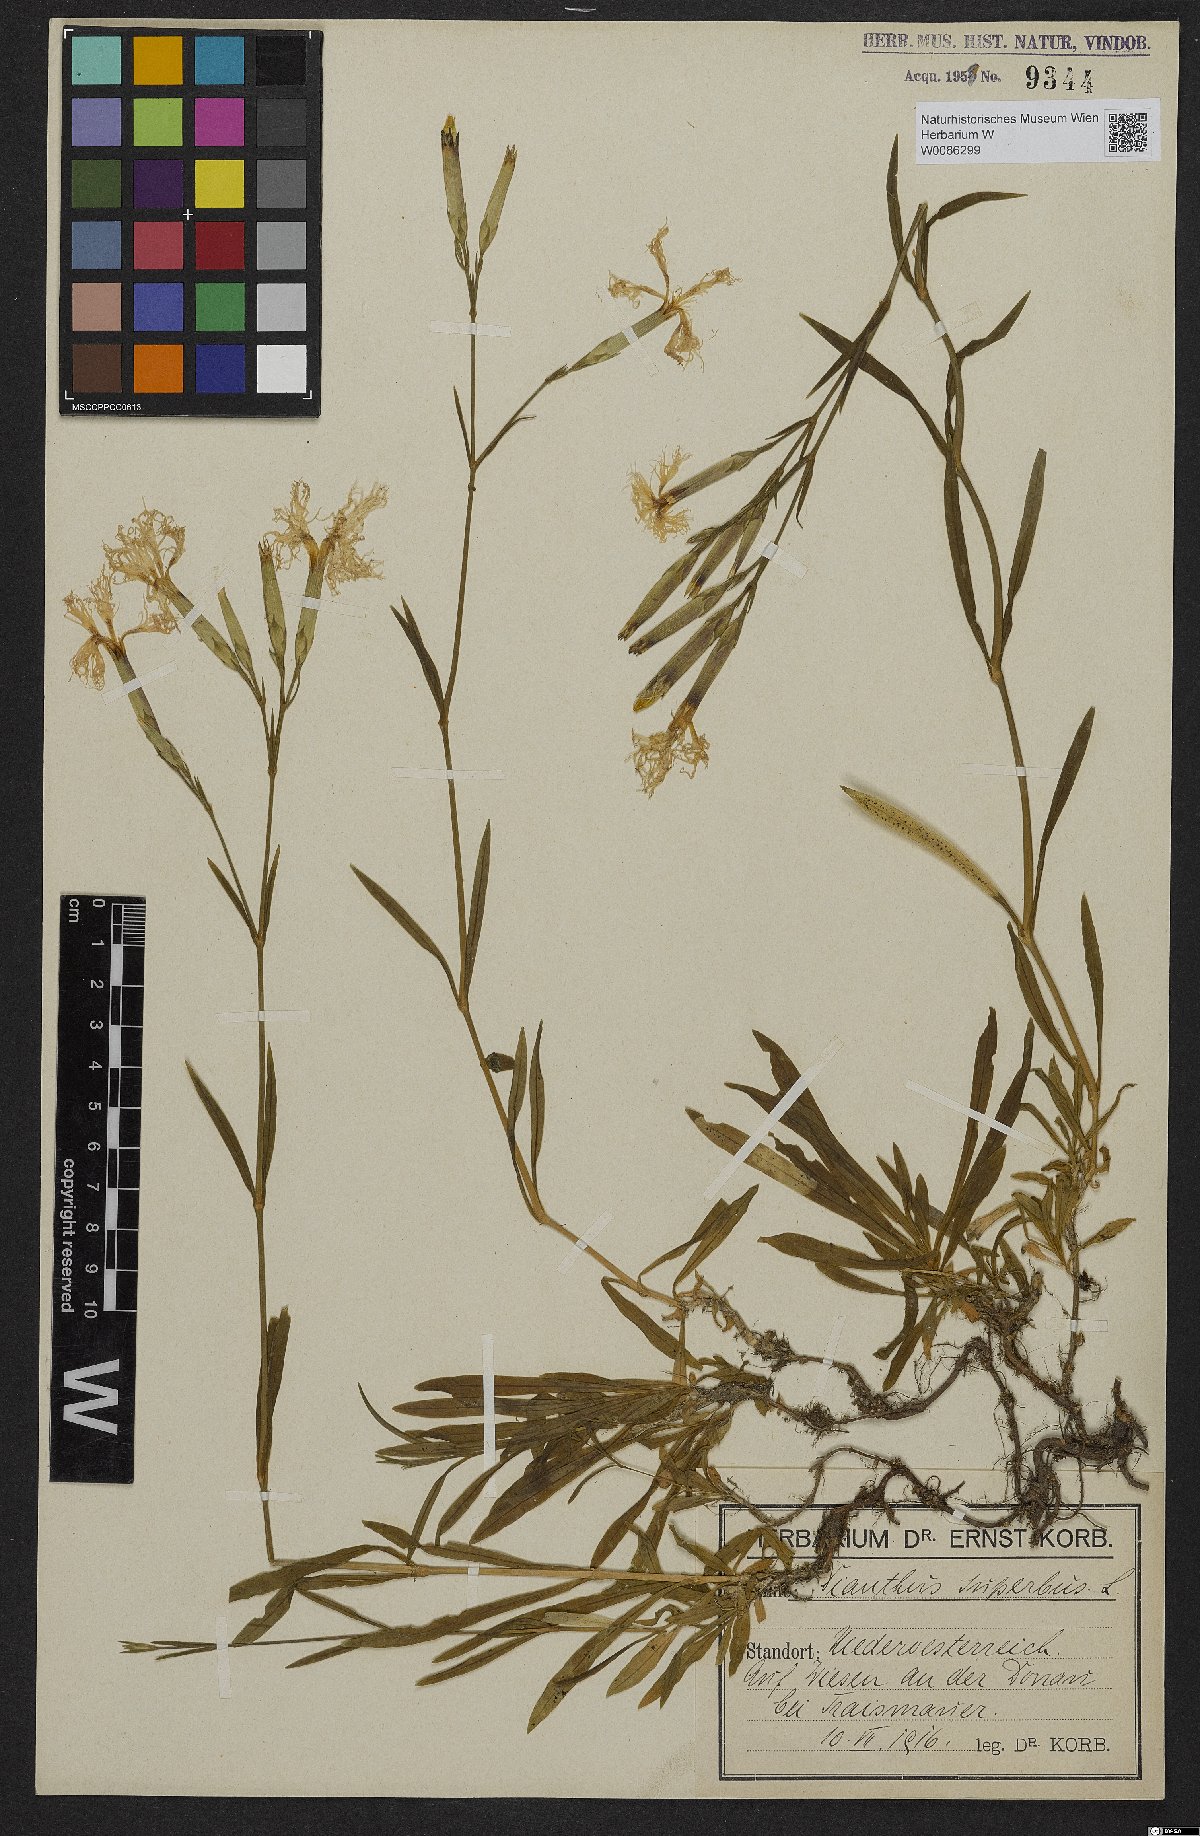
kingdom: Plantae
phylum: Tracheophyta
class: Magnoliopsida
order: Caryophyllales
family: Caryophyllaceae
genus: Dianthus
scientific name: Dianthus superbus
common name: Fringed pink
